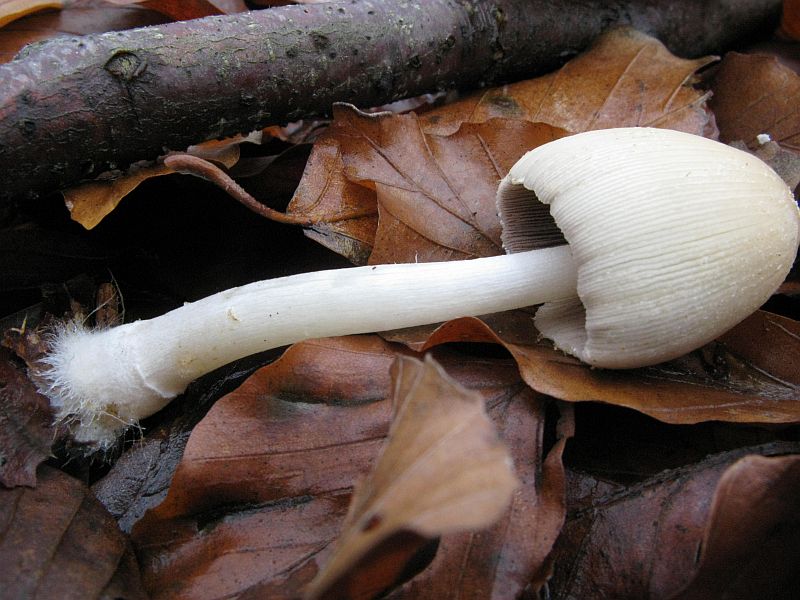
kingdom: Fungi
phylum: Basidiomycota
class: Agaricomycetes
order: Agaricales
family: Psathyrellaceae
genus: Coprinellus
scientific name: Coprinellus xanthothrix
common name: gultrådet blækhat
